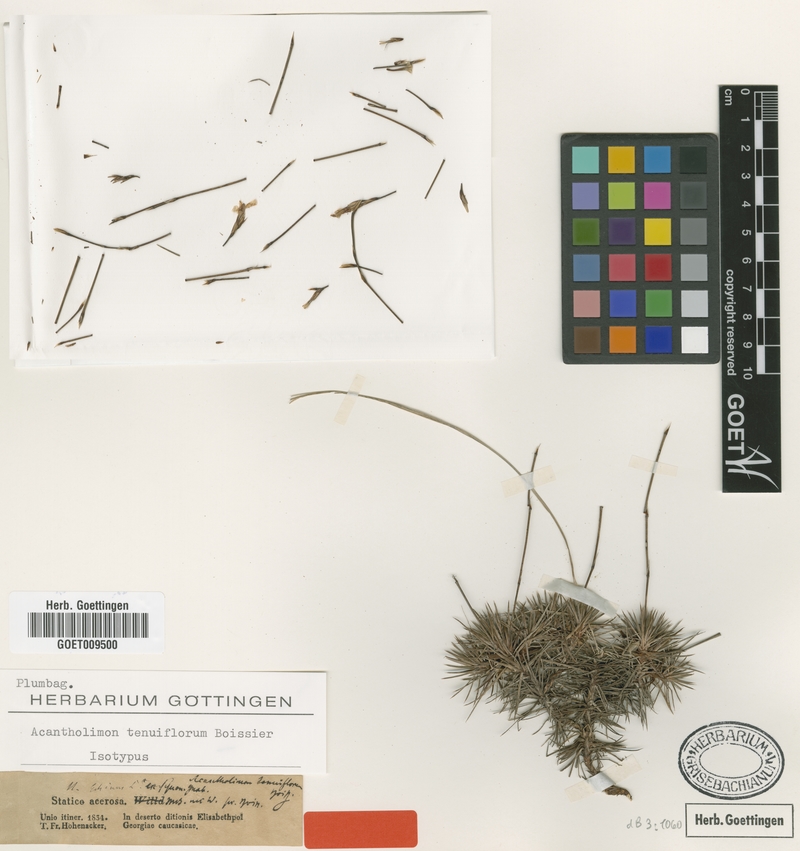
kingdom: Plantae
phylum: Tracheophyta
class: Magnoliopsida
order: Caryophyllales
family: Plumbaginaceae
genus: Acantholimon
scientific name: Acantholimon tenuiflorum
